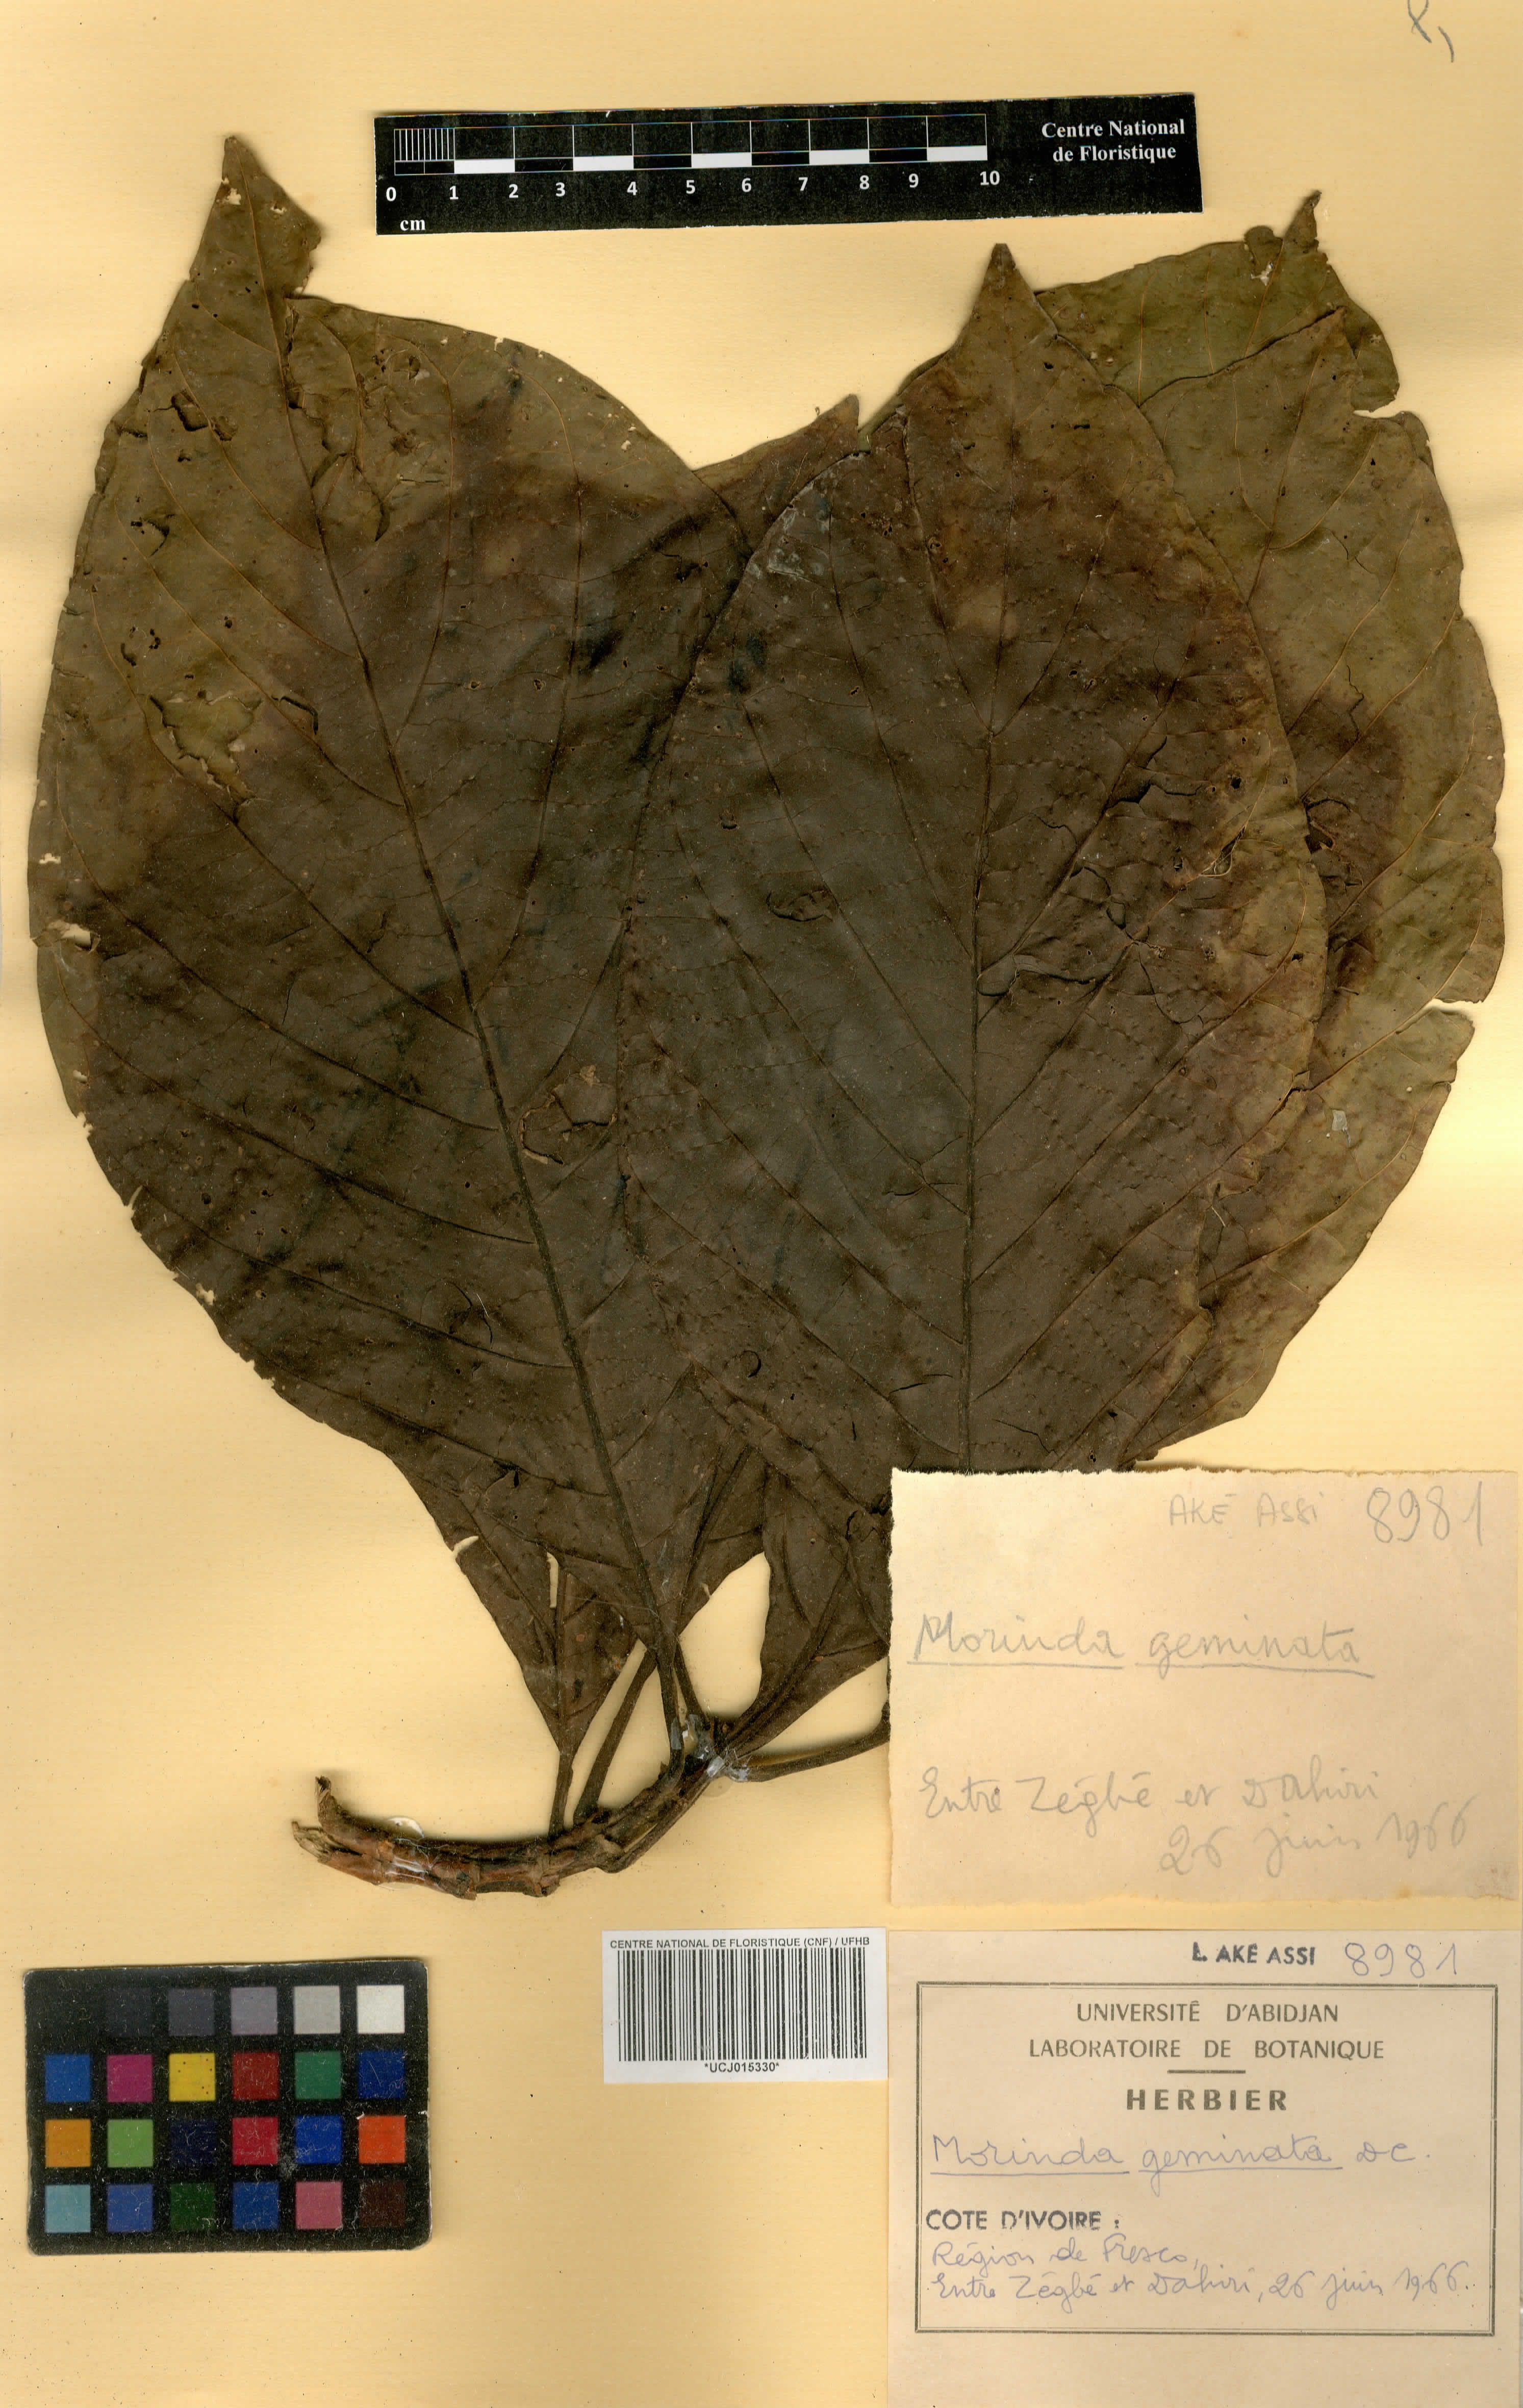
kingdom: Plantae
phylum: Tracheophyta
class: Magnoliopsida
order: Gentianales
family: Rubiaceae
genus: Morinda
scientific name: Morinda chrysorhiza
